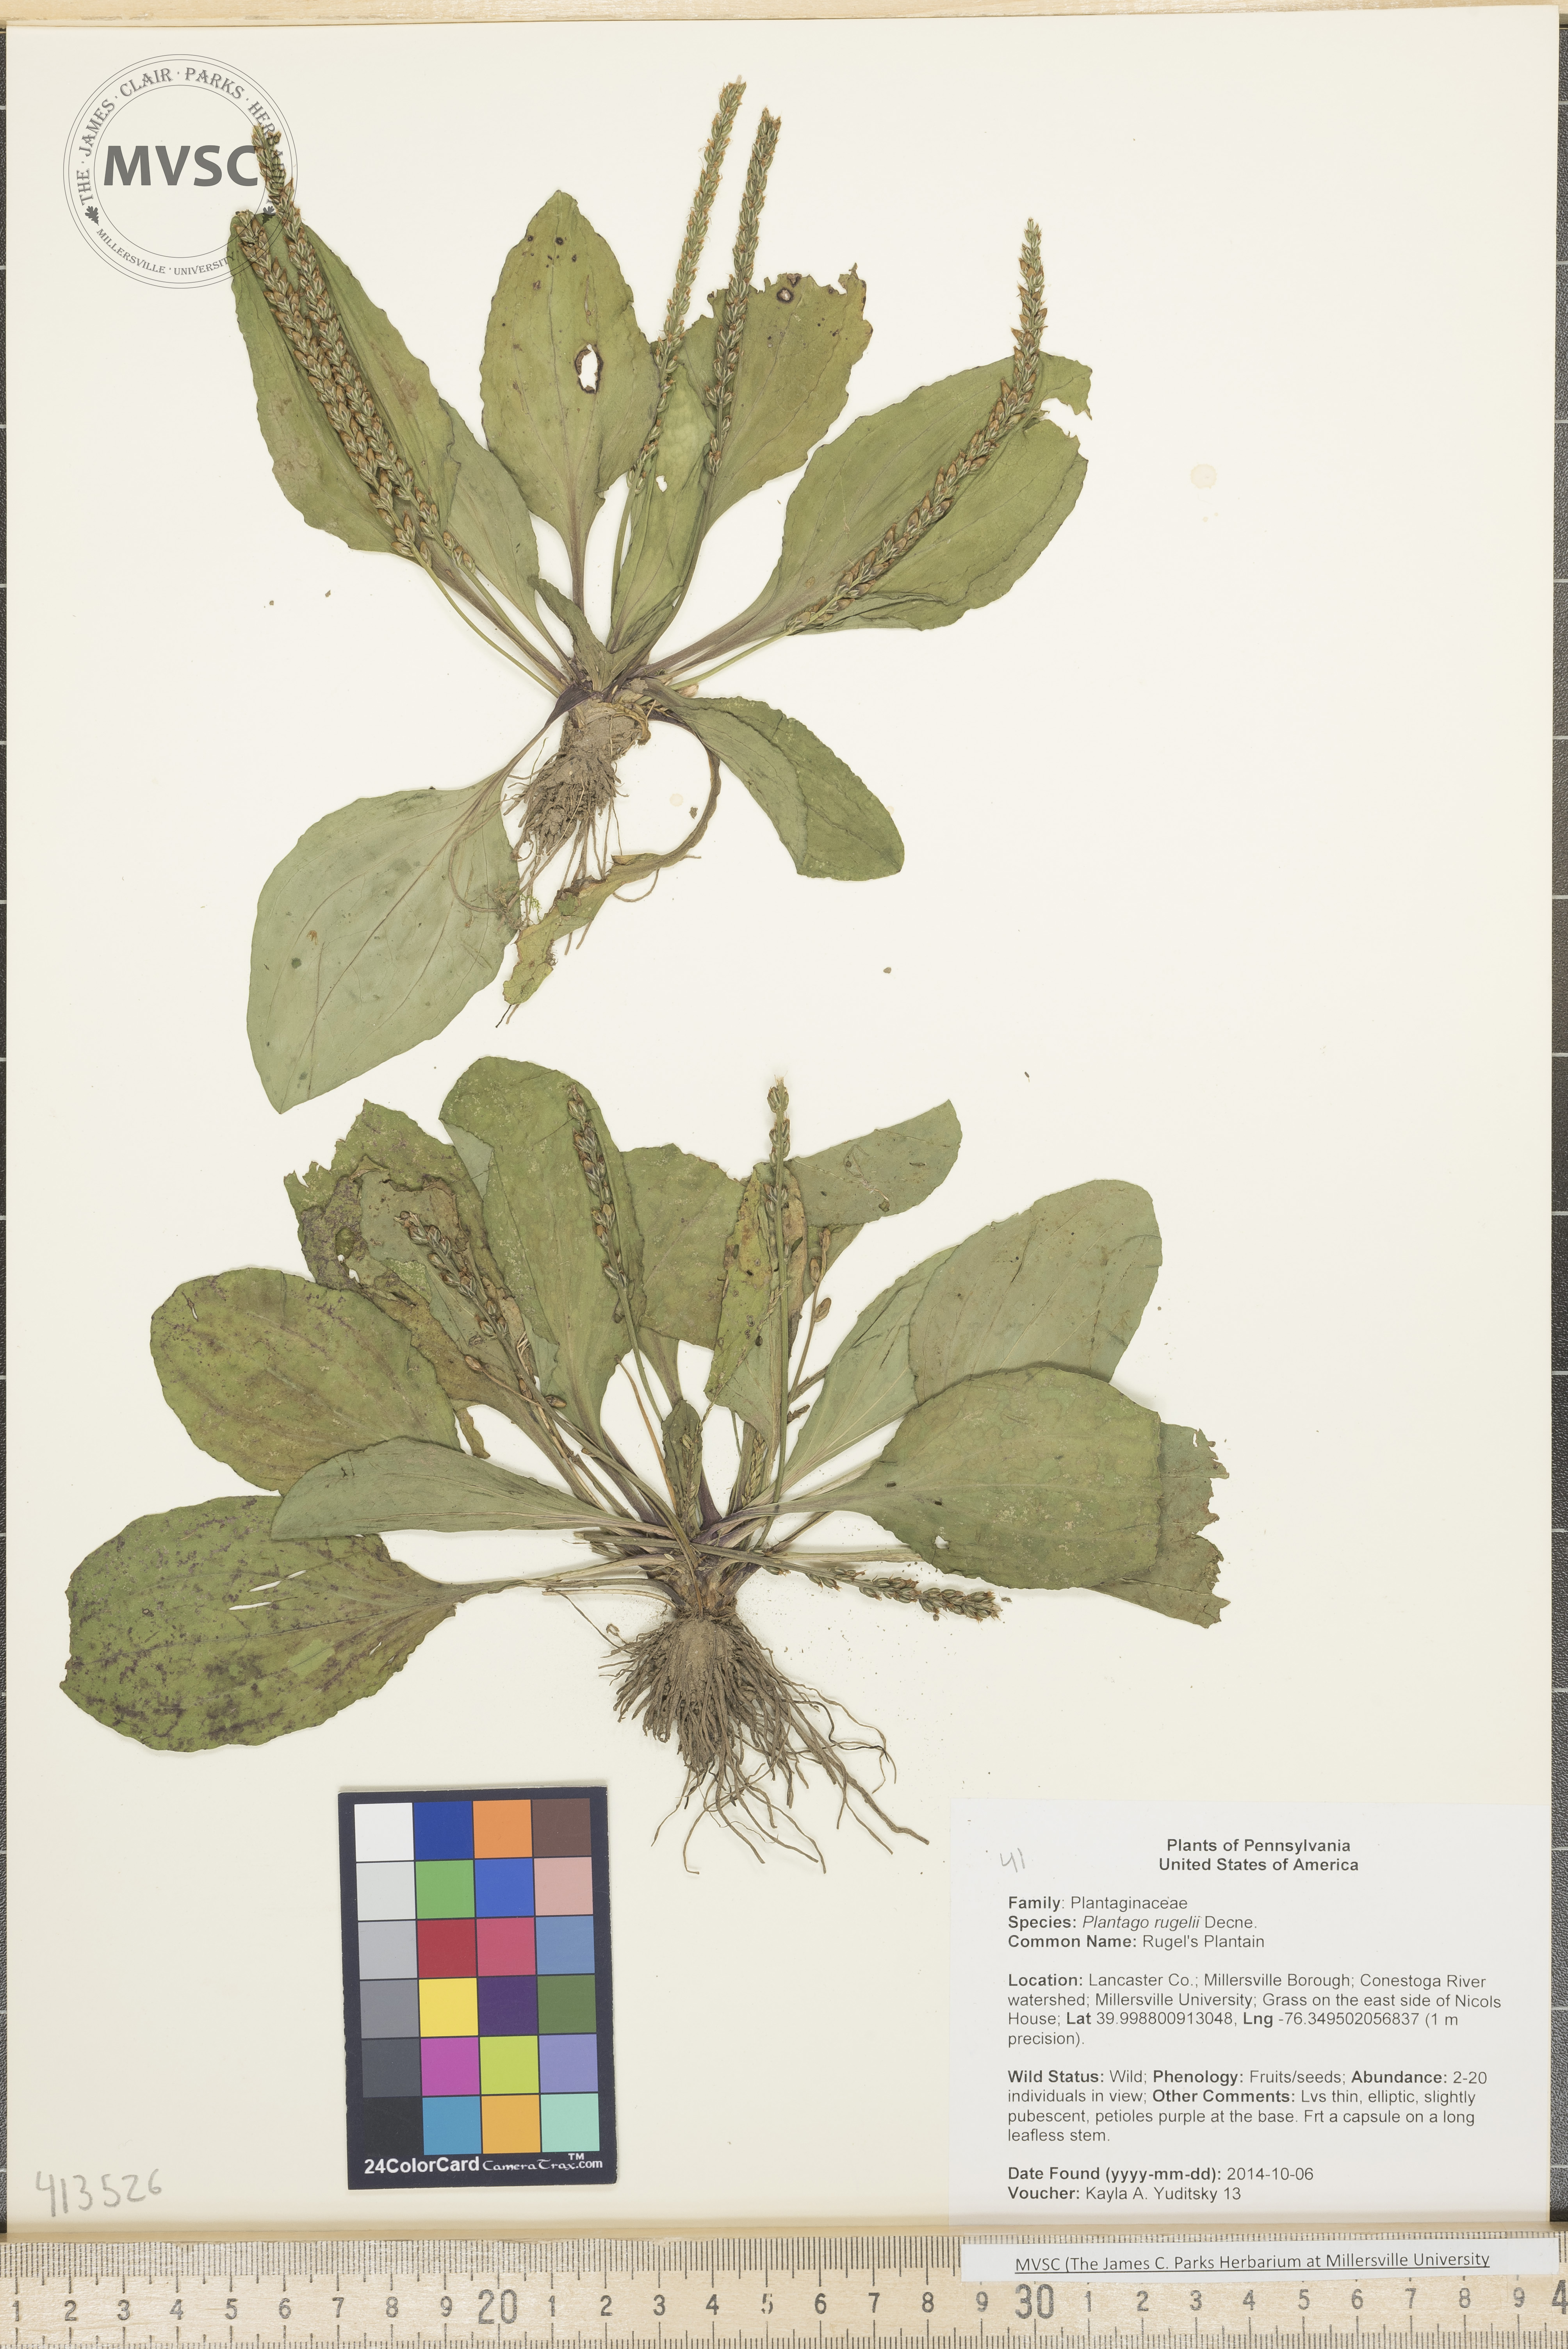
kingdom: Plantae
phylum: Tracheophyta
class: Magnoliopsida
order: Lamiales
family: Plantaginaceae
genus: Plantago
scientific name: Plantago rugelii
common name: Rugel's Plantain
